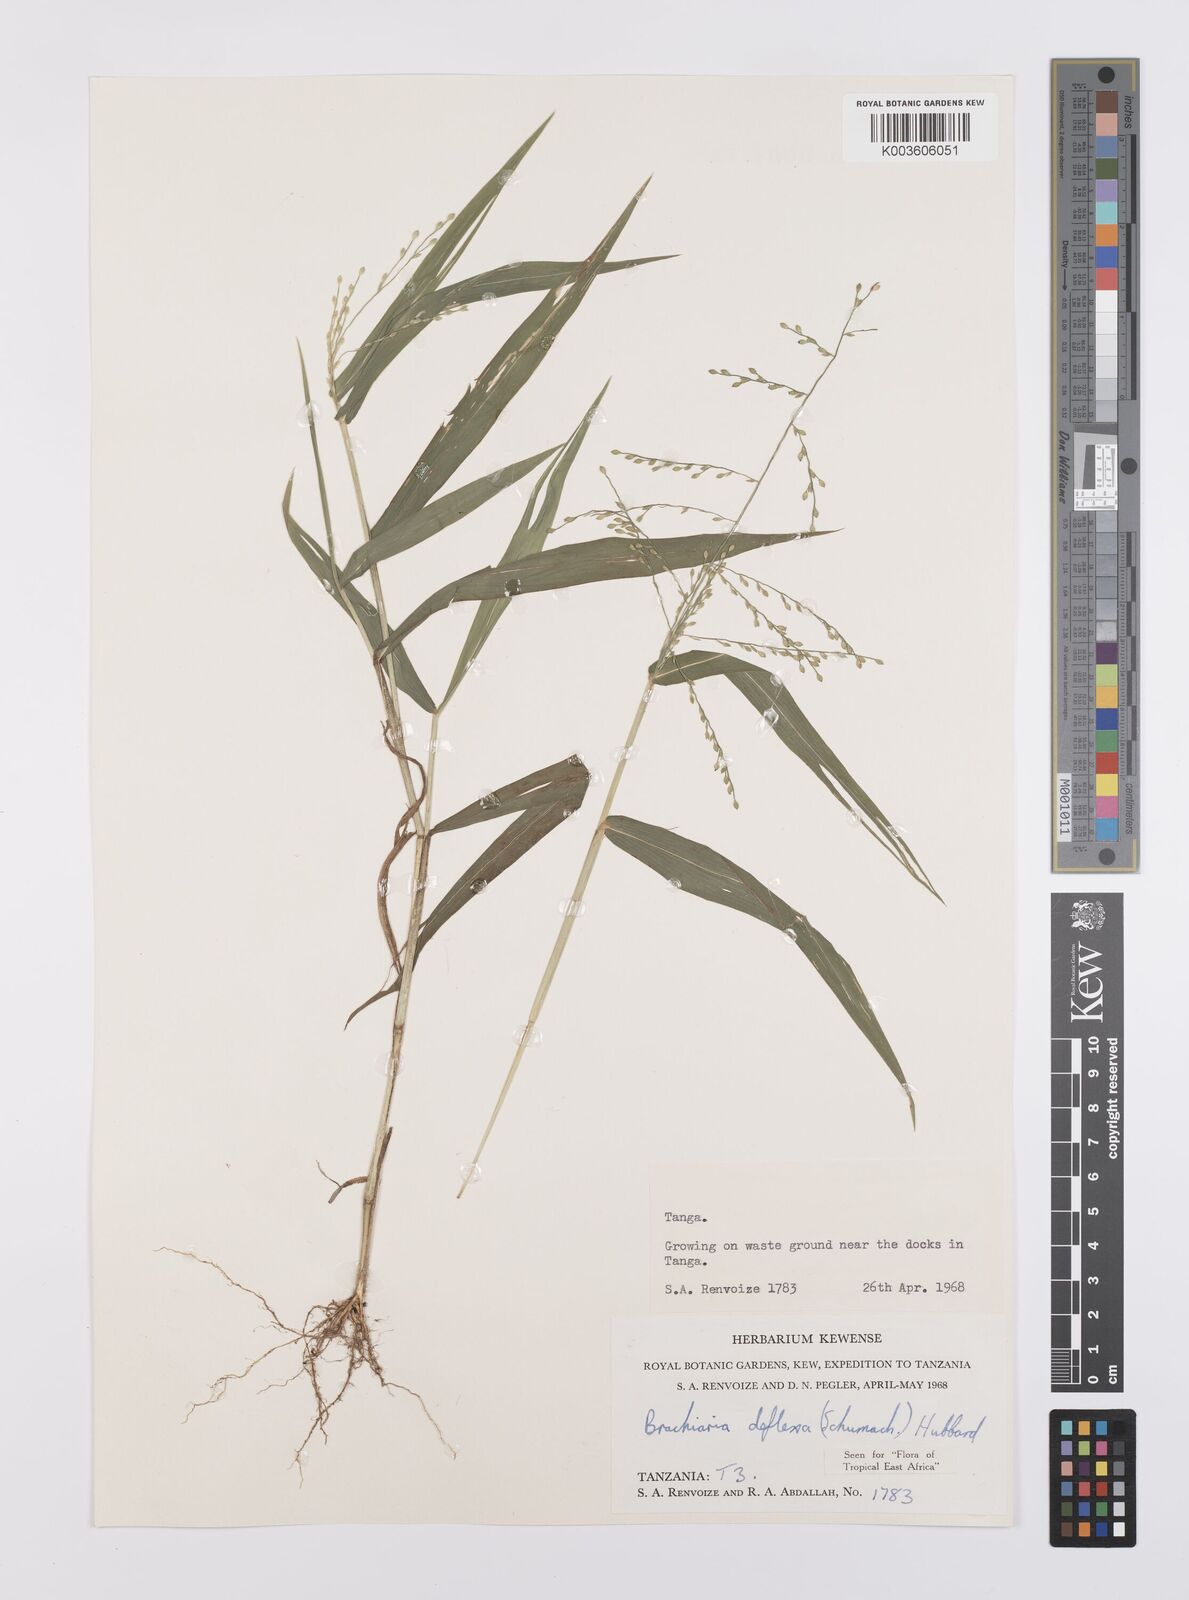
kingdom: Plantae
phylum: Tracheophyta
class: Liliopsida
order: Poales
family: Poaceae
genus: Urochloa
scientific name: Urochloa deflexa
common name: Guinea millet
